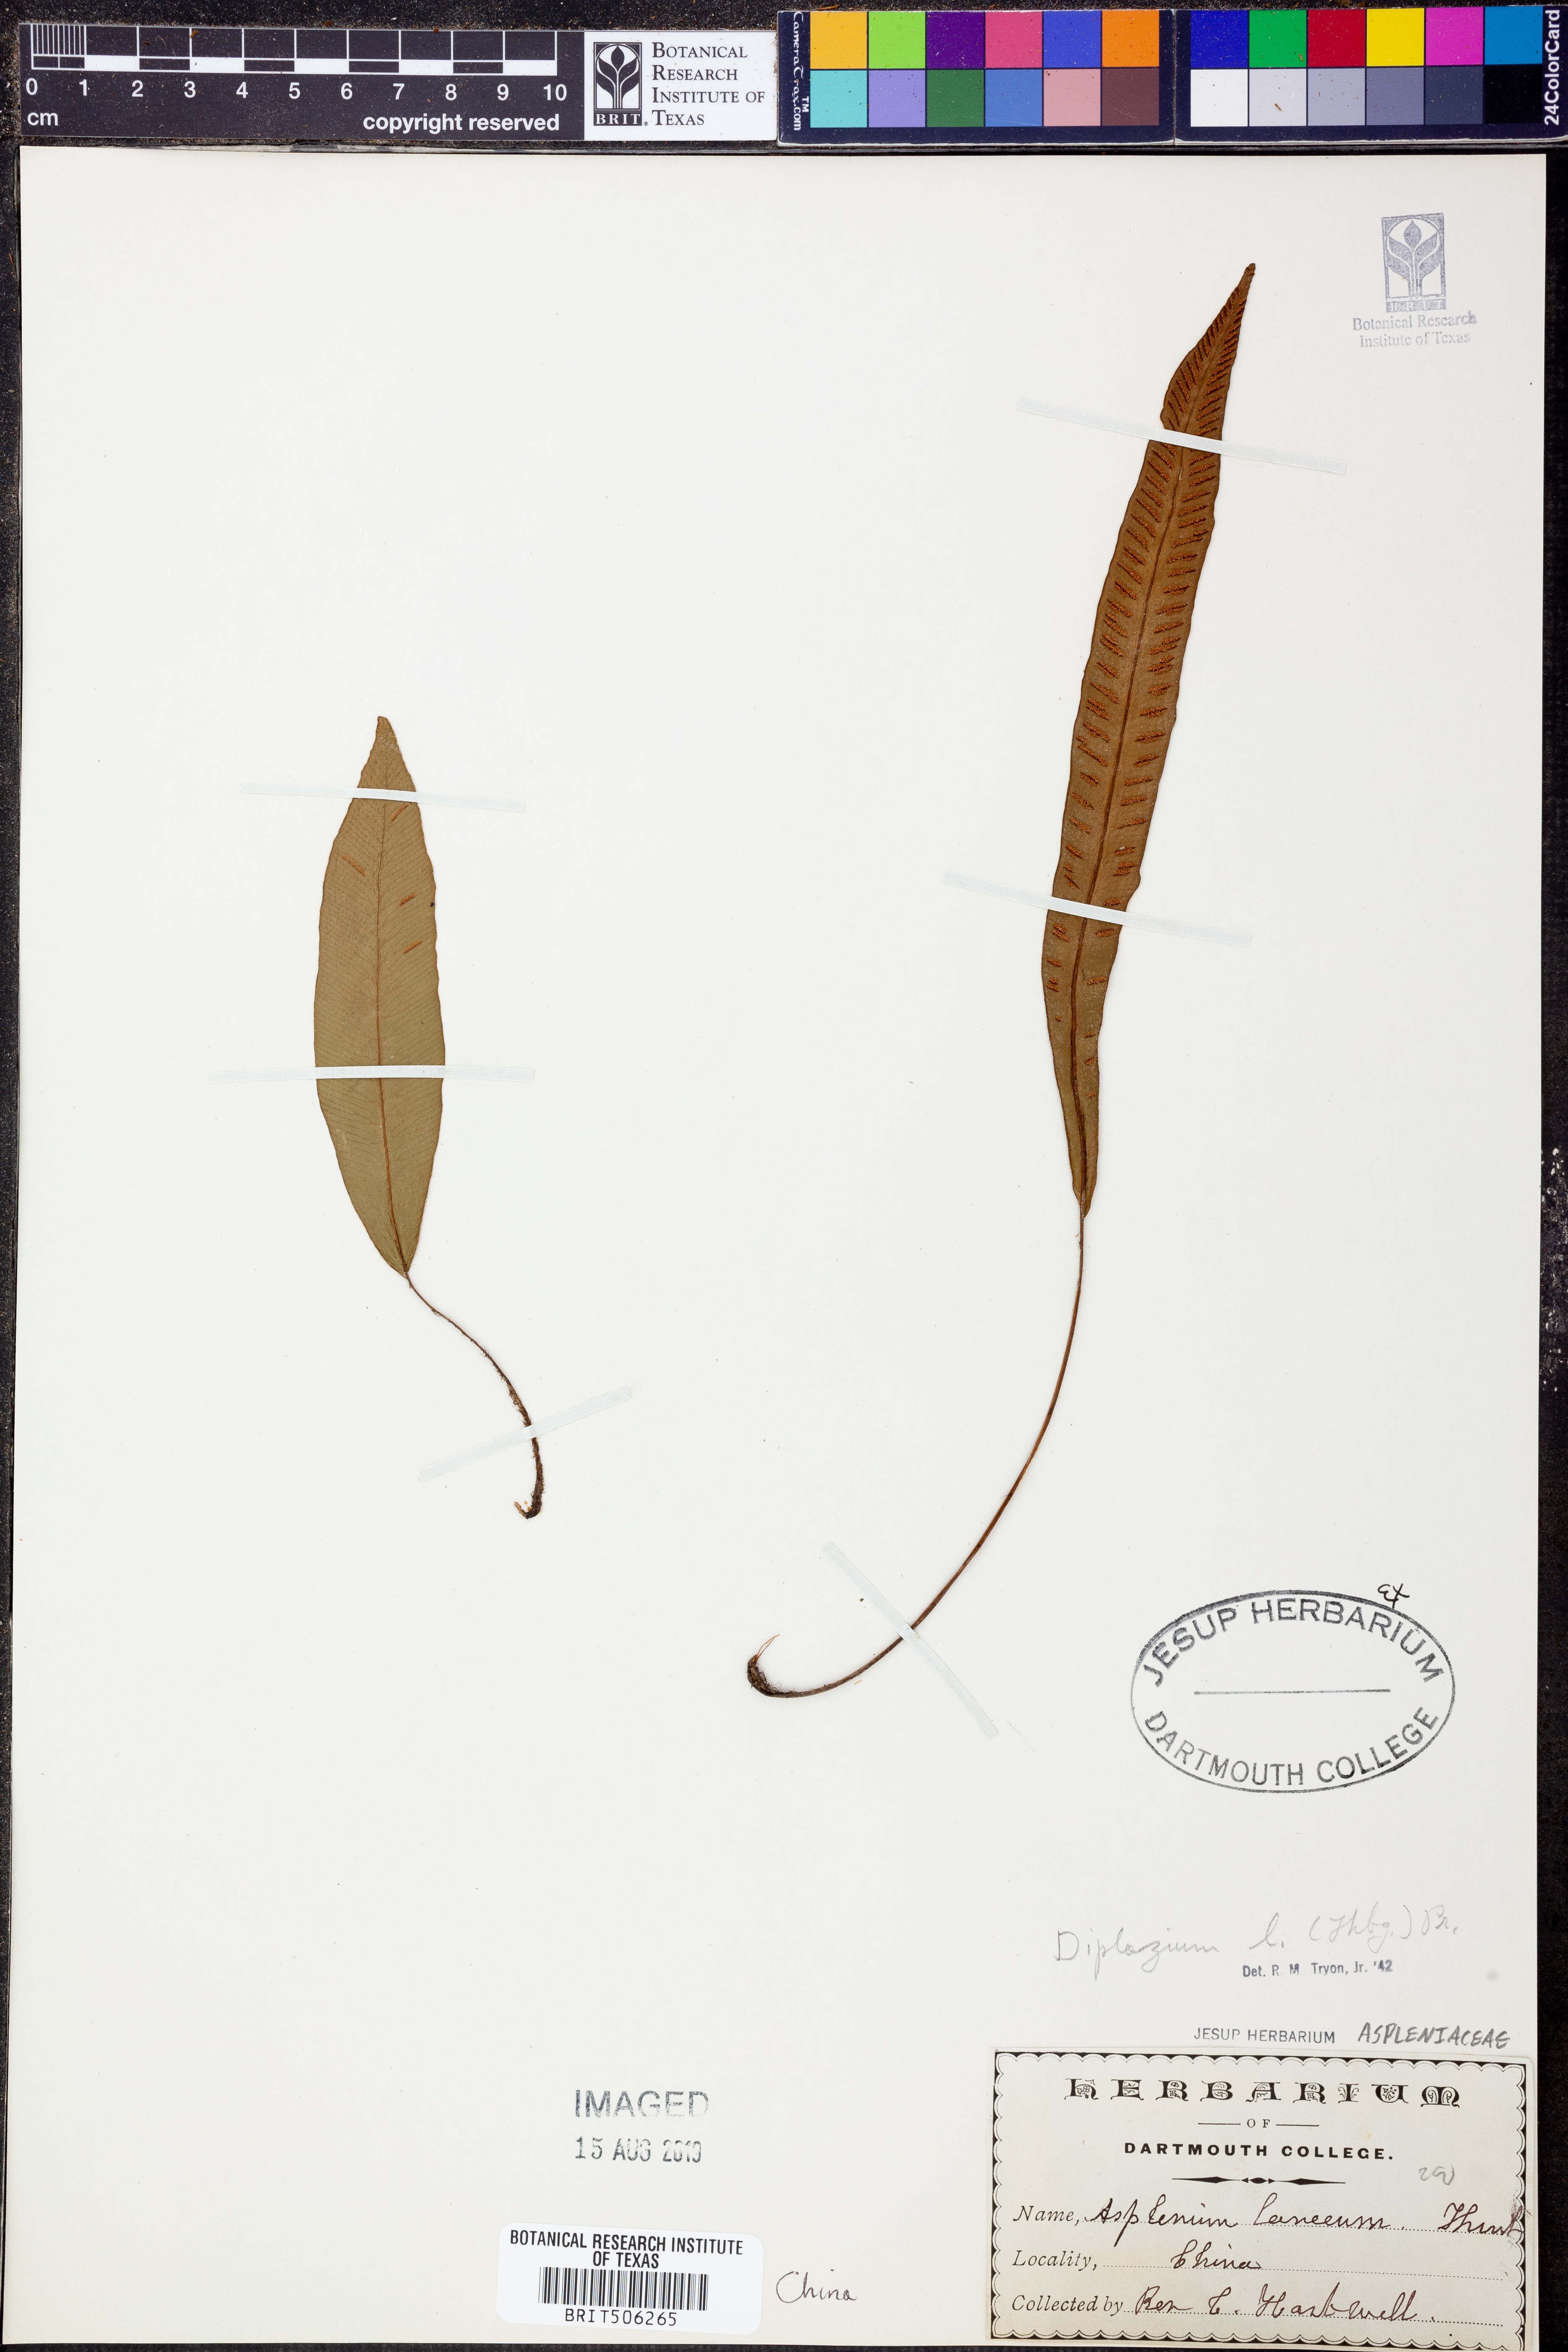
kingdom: Plantae
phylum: Tracheophyta
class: Polypodiopsida
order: Polypodiales
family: Athyriaceae
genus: Diplazium
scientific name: Diplazium cordifolium
